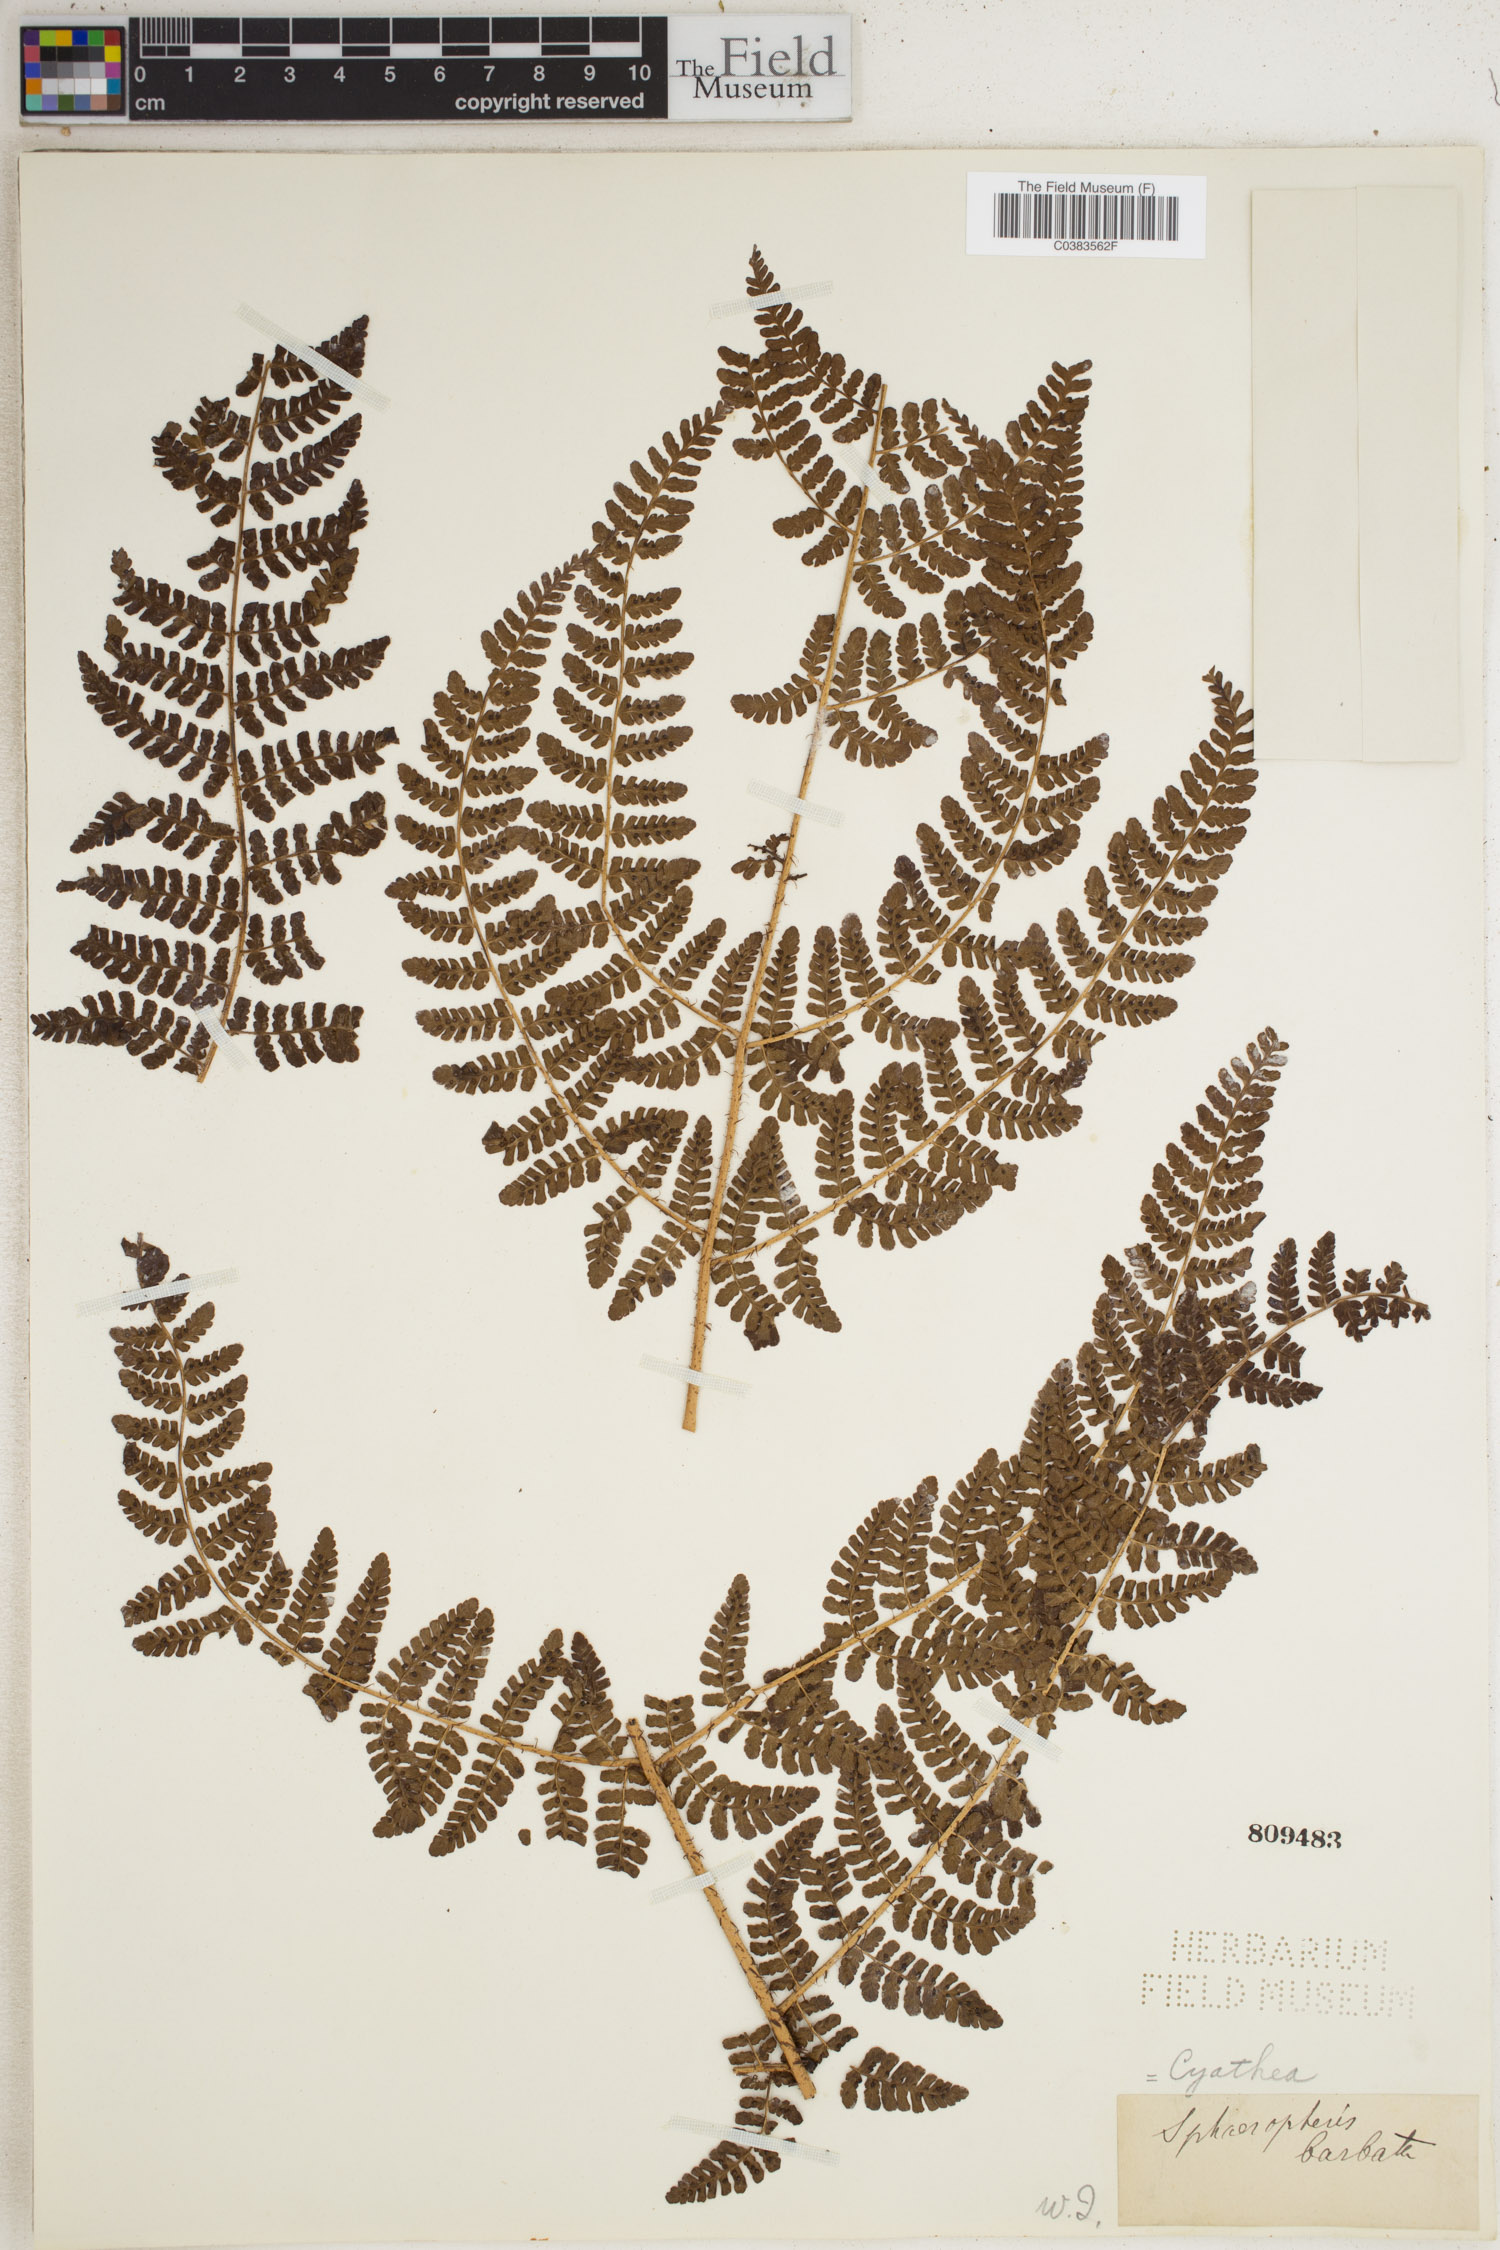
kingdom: Plantae
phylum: Tracheophyta
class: Polypodiopsida
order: Cyatheales
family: Cyatheaceae
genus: Cyathea
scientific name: Cyathea tenera
